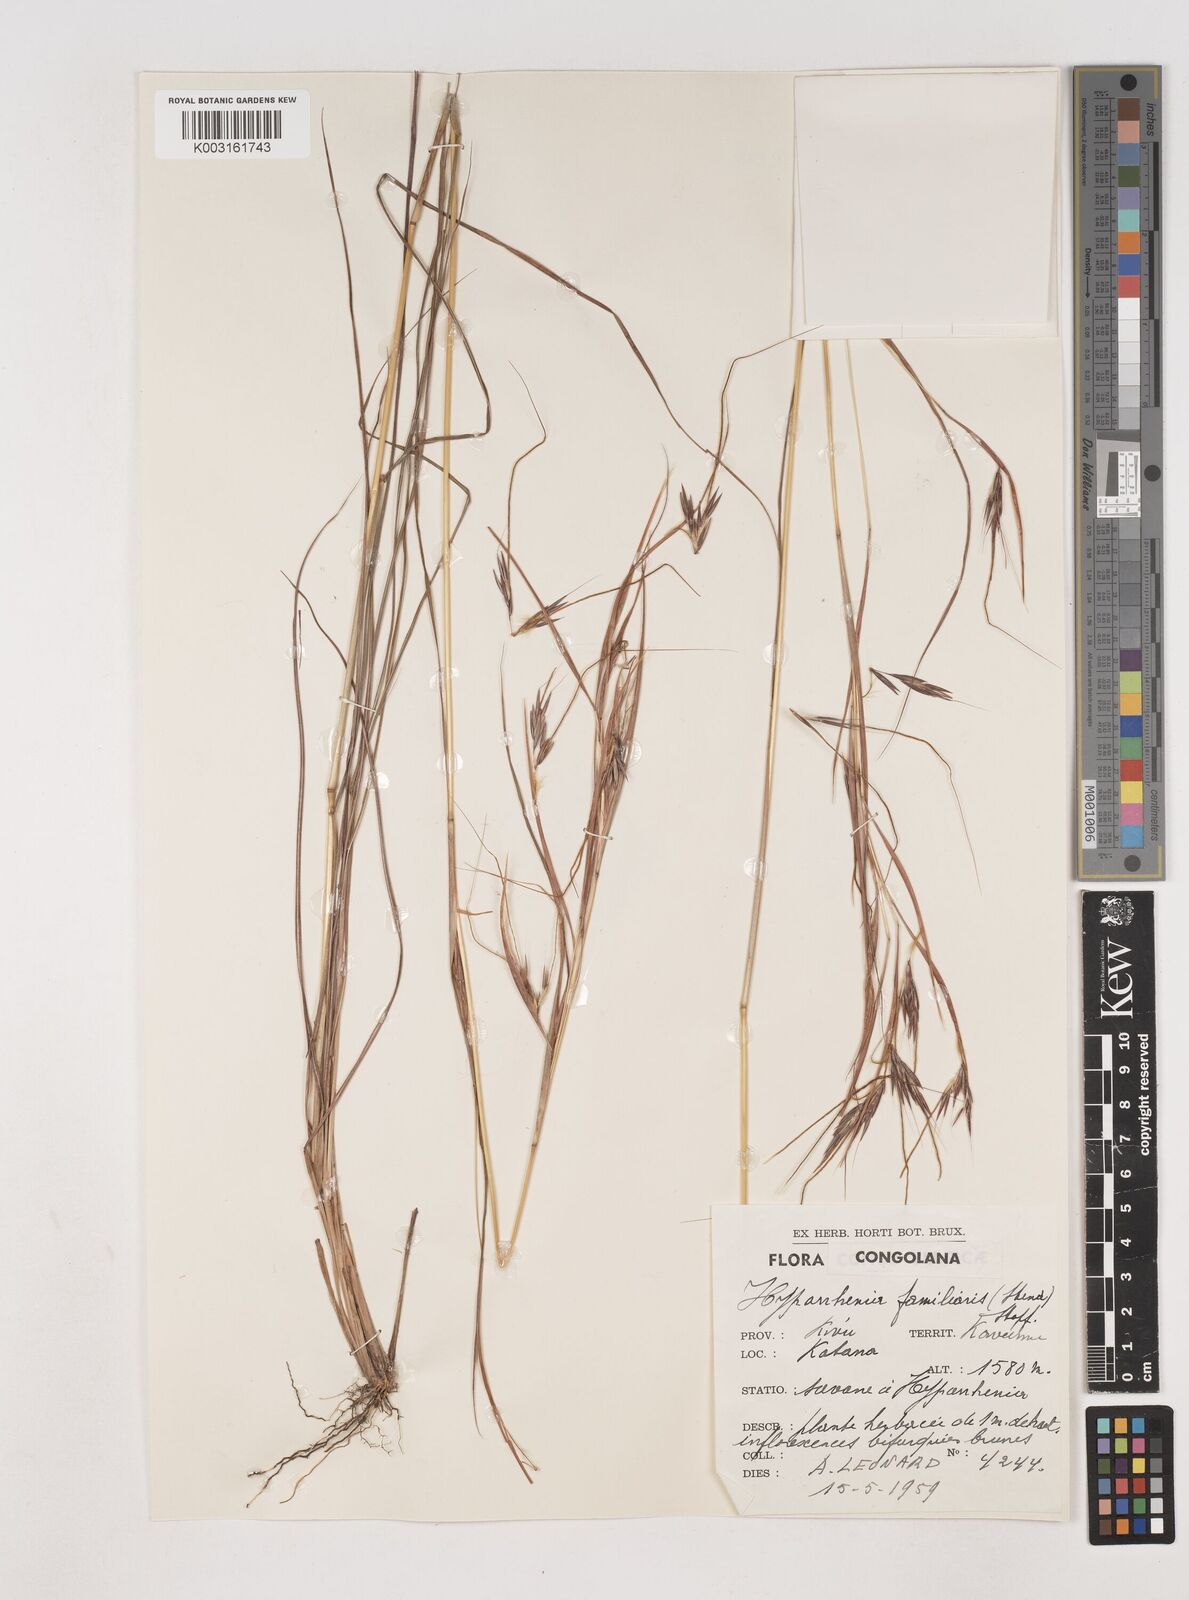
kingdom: Plantae
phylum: Tracheophyta
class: Liliopsida
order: Poales
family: Poaceae
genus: Hyparrhenia
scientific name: Hyparrhenia familiaris
